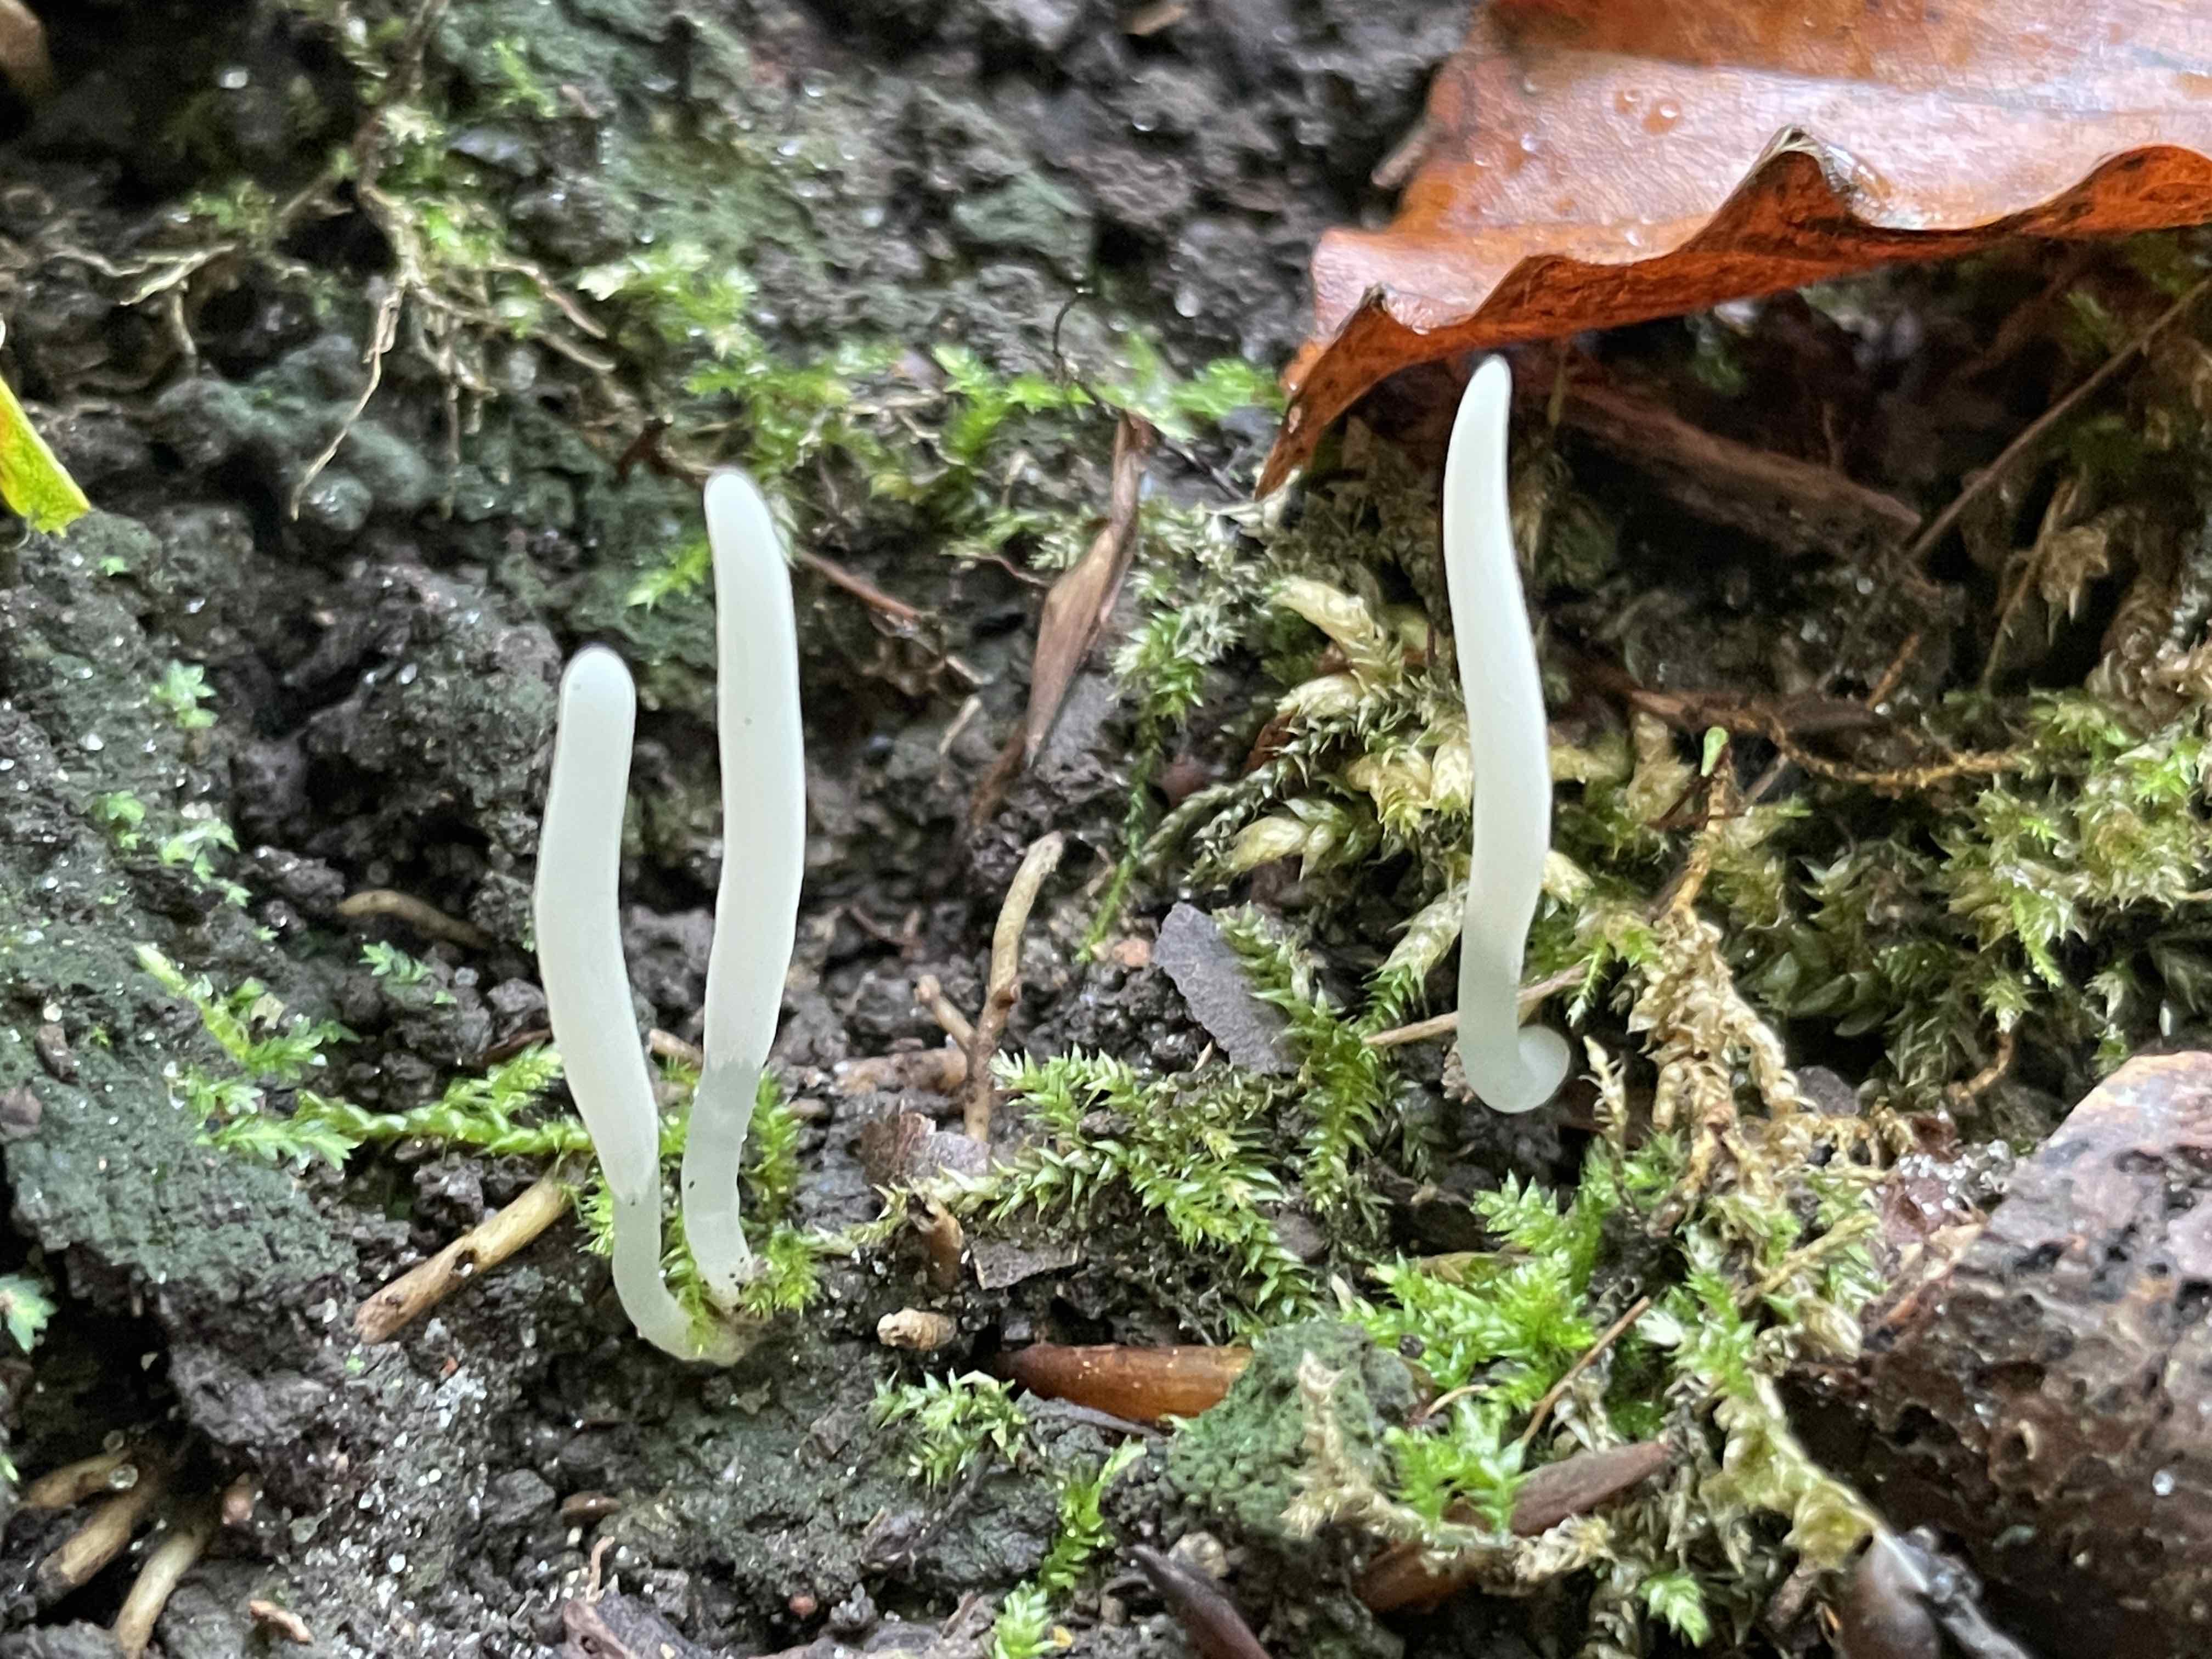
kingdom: Fungi
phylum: Basidiomycota
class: Agaricomycetes
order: Agaricales
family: Clavariaceae
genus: Clavaria
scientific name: Clavaria falcata
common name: hvid køllesvamp
